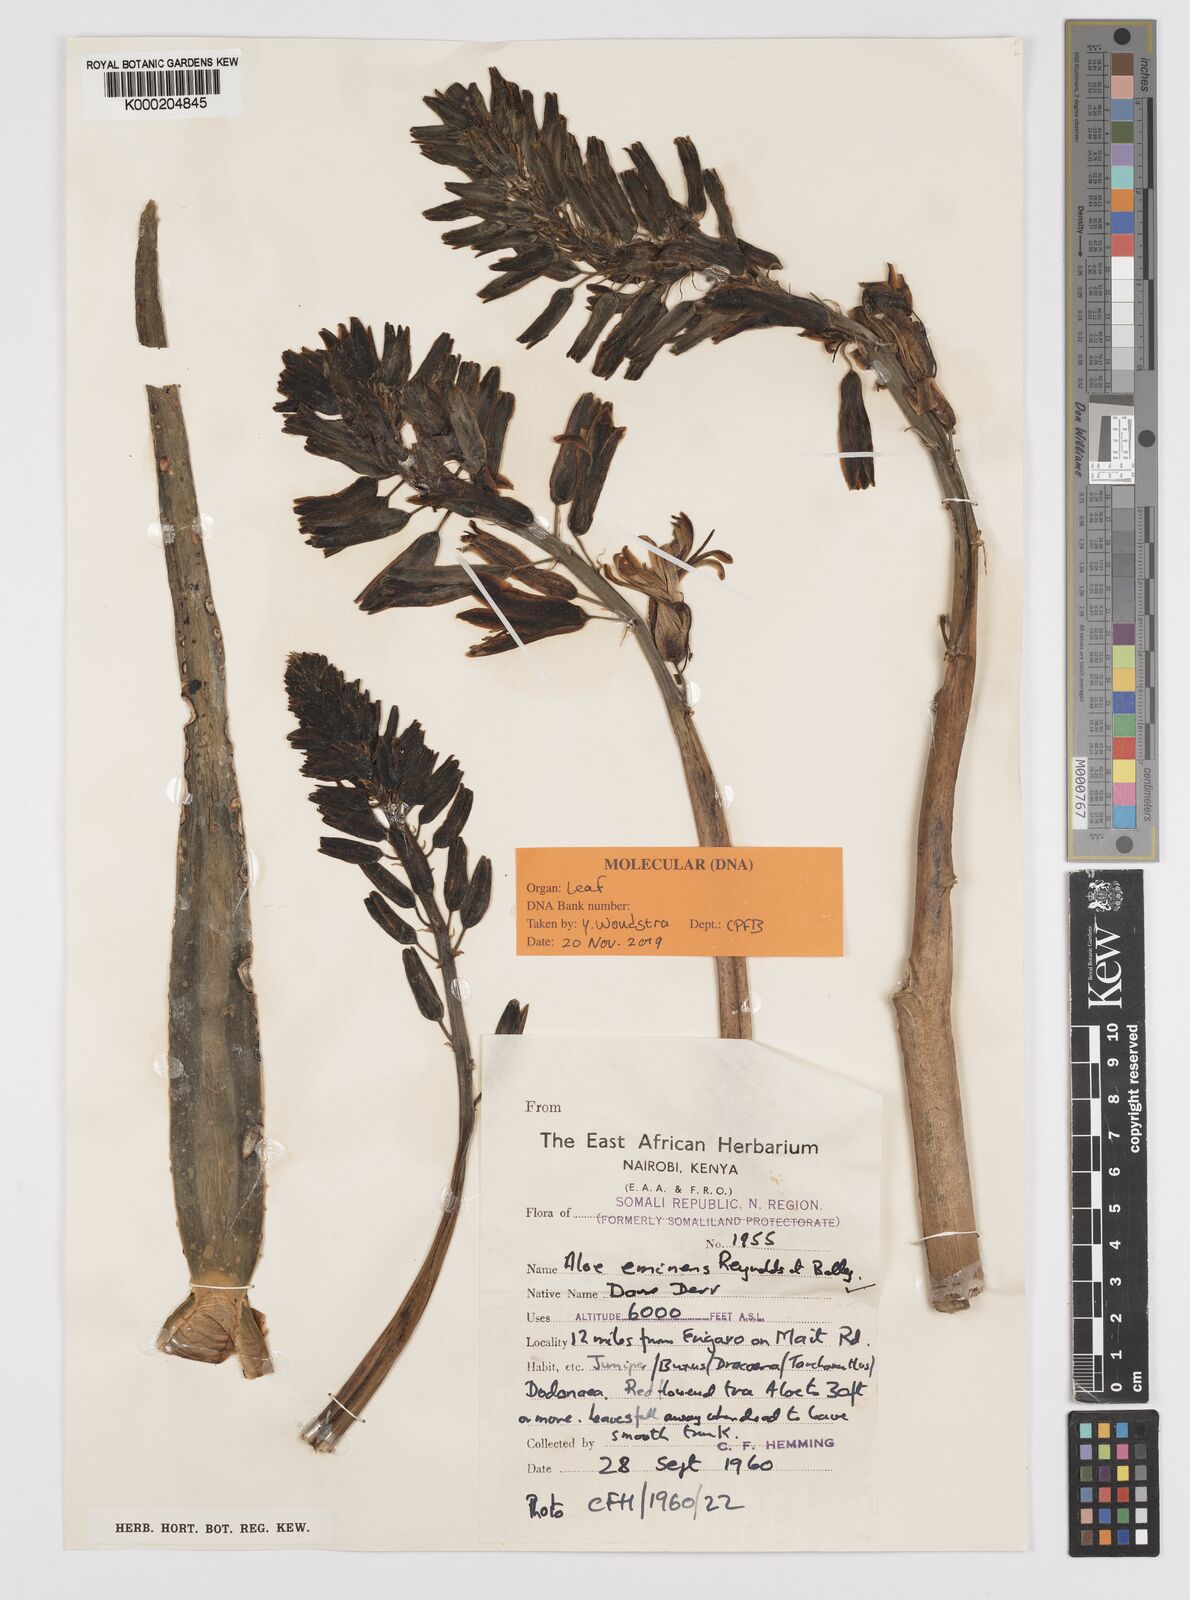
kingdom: Plantae
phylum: Tracheophyta
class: Liliopsida
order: Asparagales
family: Asphodelaceae
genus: Aloidendron
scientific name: Aloidendron eminens
